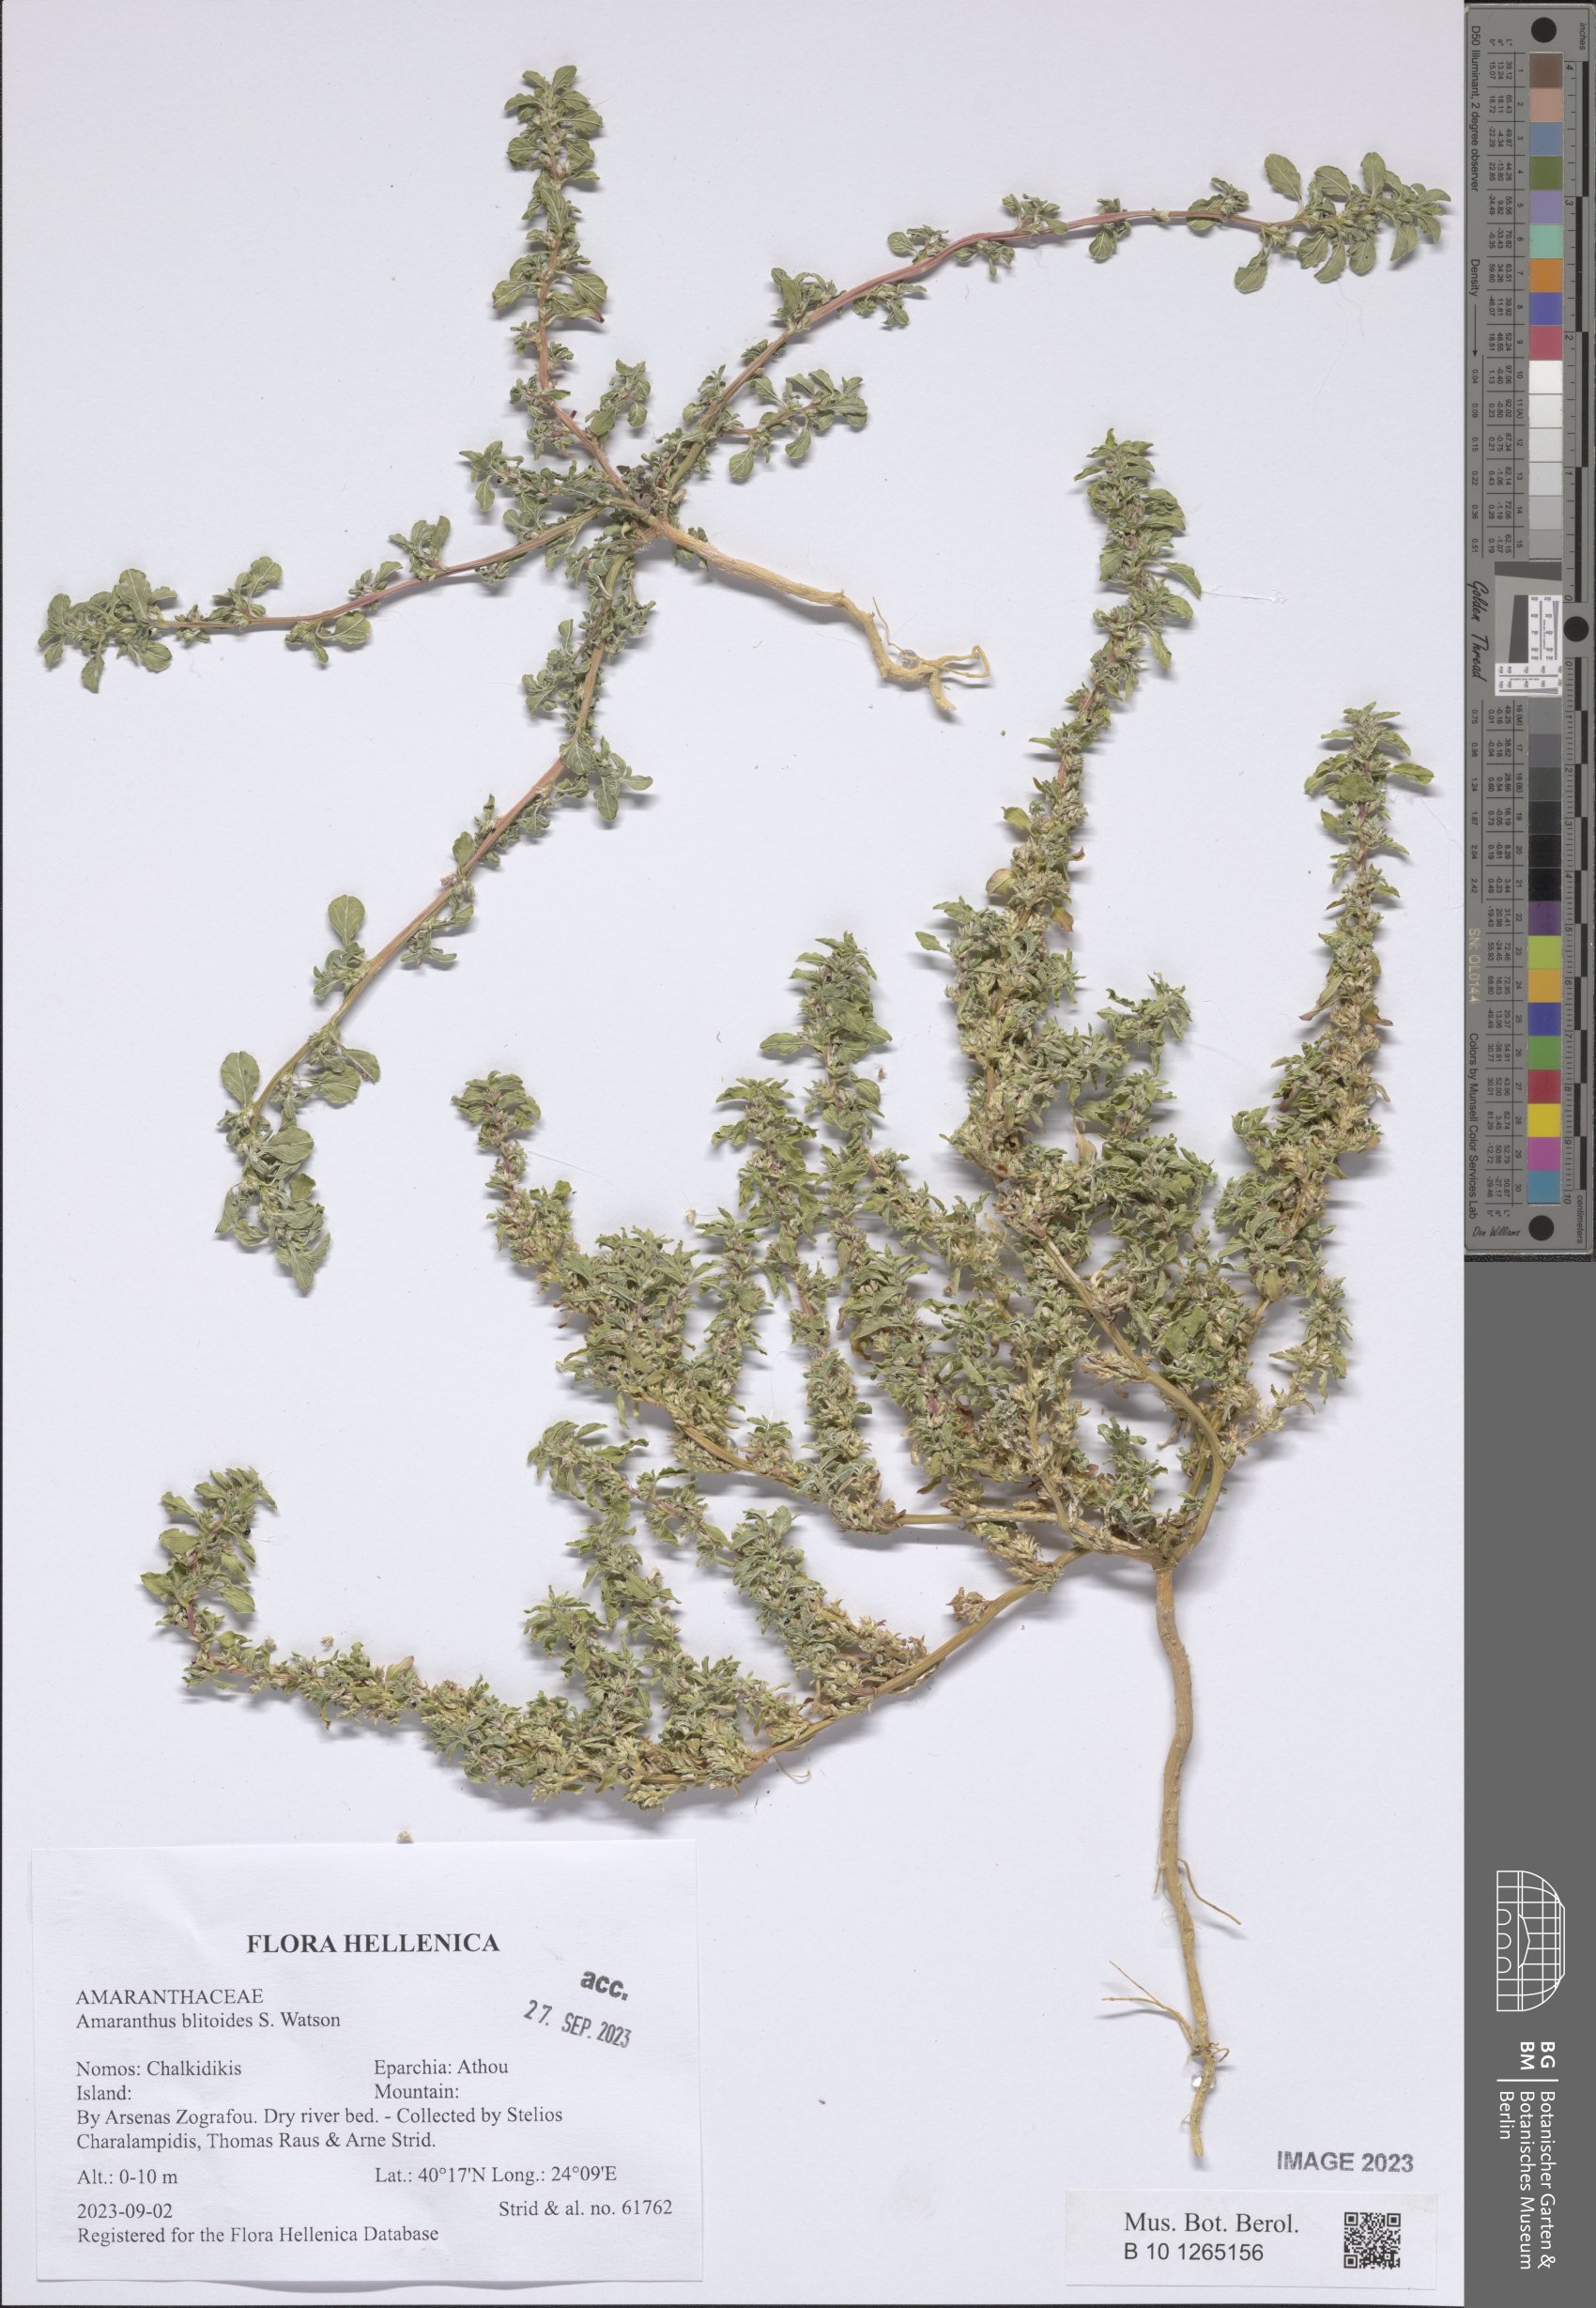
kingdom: Plantae
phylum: Tracheophyta
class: Magnoliopsida
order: Caryophyllales
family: Amaranthaceae
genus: Amaranthus
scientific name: Amaranthus blitoides
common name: Prostrate pigweed
